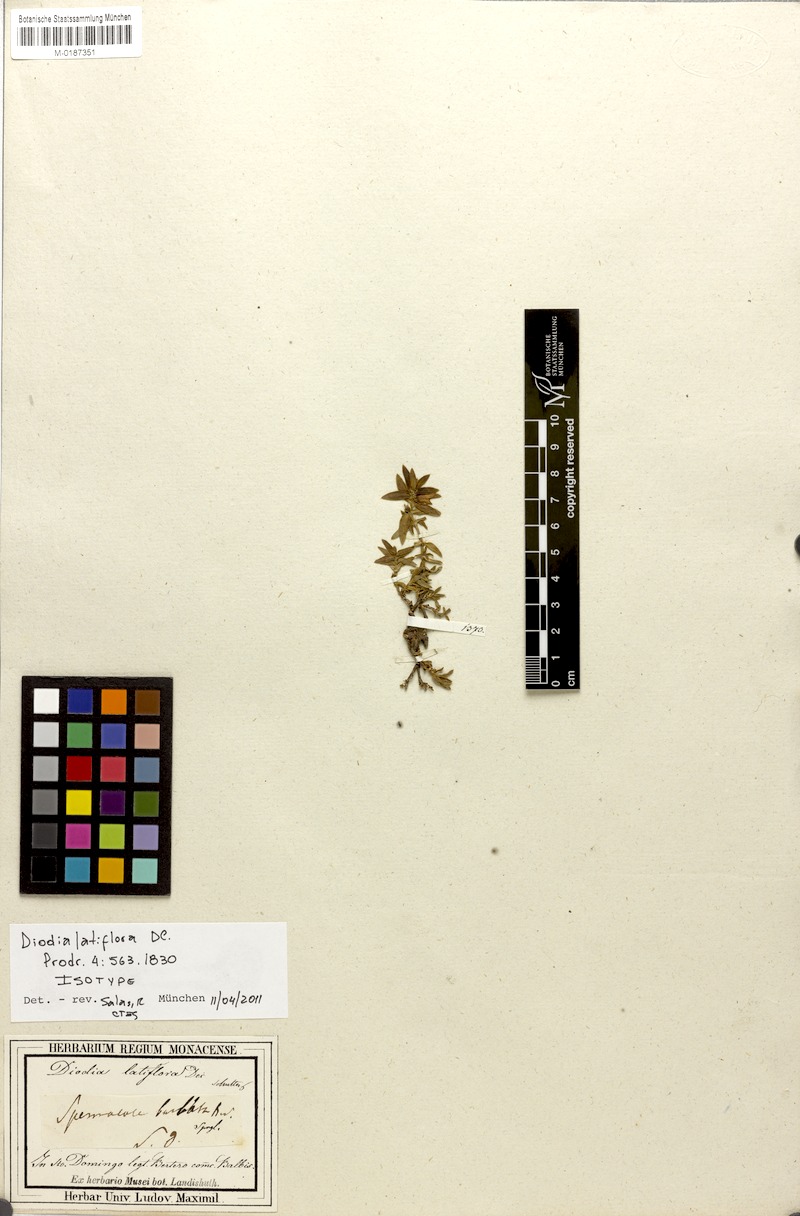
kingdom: Plantae
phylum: Tracheophyta
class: Magnoliopsida
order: Gentianales
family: Rubiaceae
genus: Hexasepalum
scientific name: Hexasepalum apiculatum
